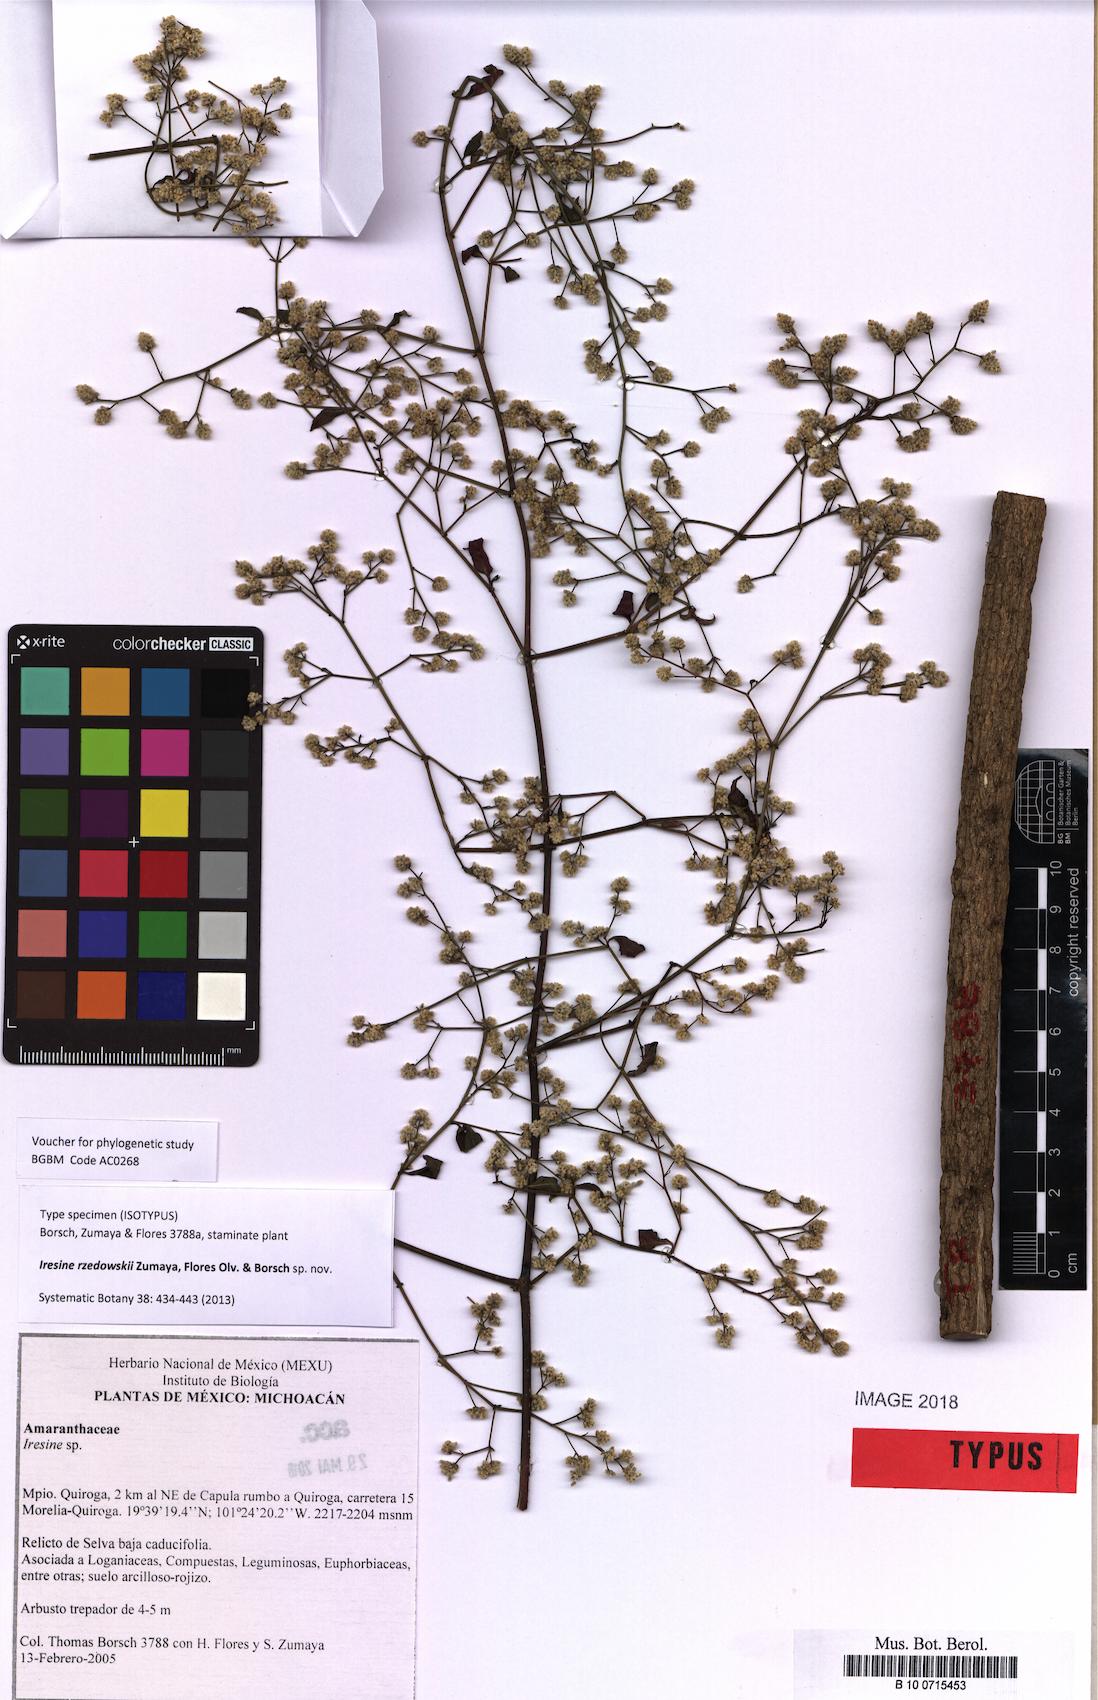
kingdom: Plantae
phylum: Tracheophyta
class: Magnoliopsida
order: Caryophyllales
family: Amaranthaceae
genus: Iresine
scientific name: Iresine rzedowskii
